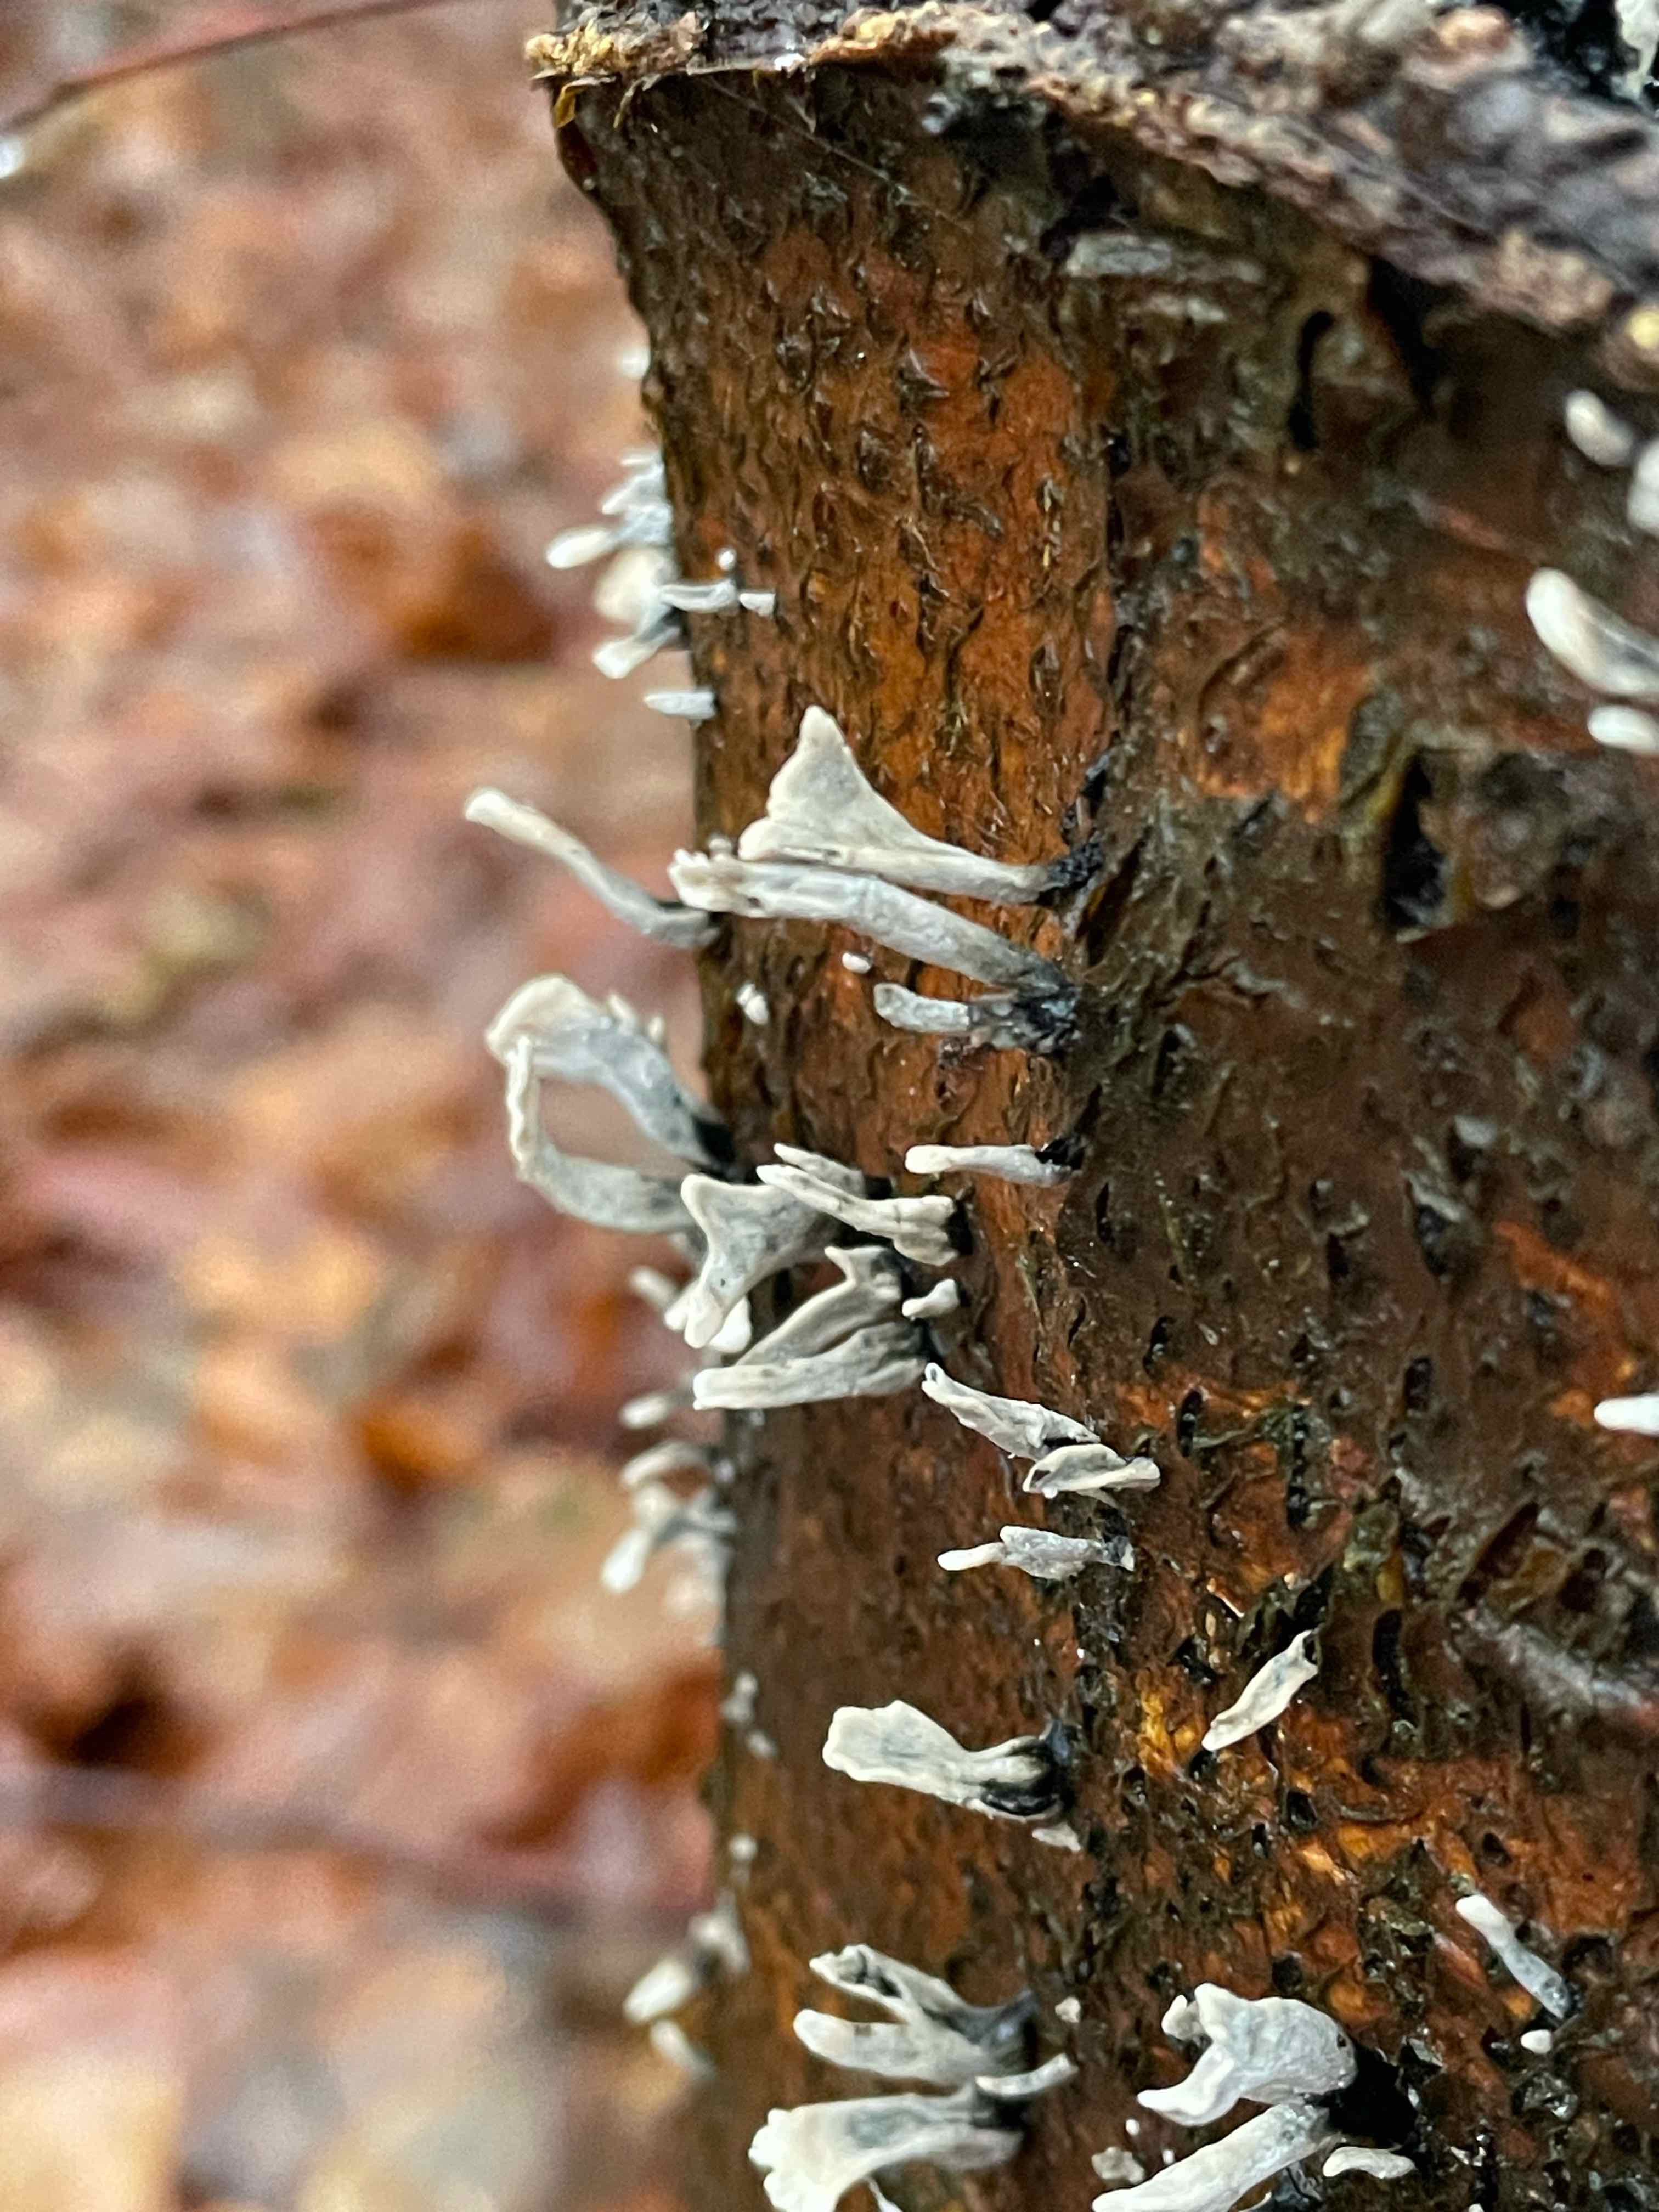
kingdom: Fungi
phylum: Ascomycota
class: Sordariomycetes
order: Xylariales
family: Xylariaceae
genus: Xylaria
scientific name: Xylaria hypoxylon
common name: grenet stødsvamp
